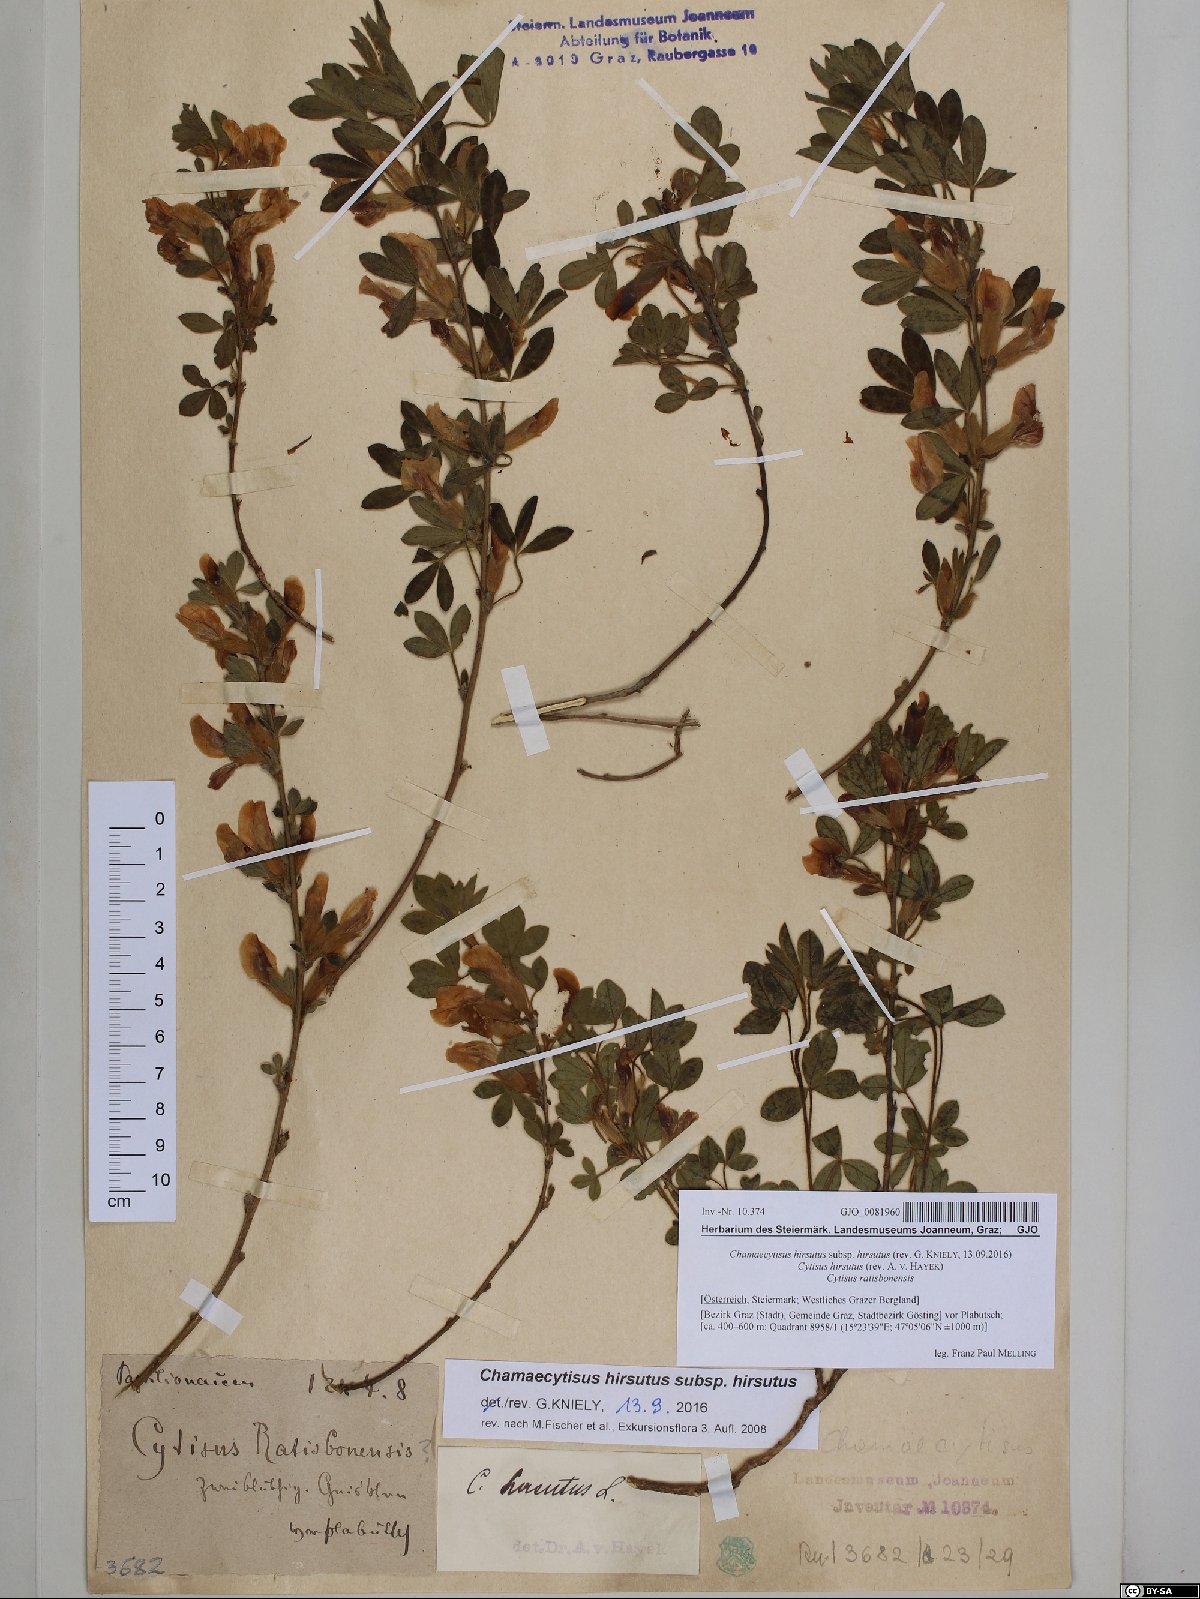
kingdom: Plantae
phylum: Tracheophyta
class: Magnoliopsida
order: Fabales
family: Fabaceae
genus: Chamaecytisus
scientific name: Chamaecytisus hirsutus
